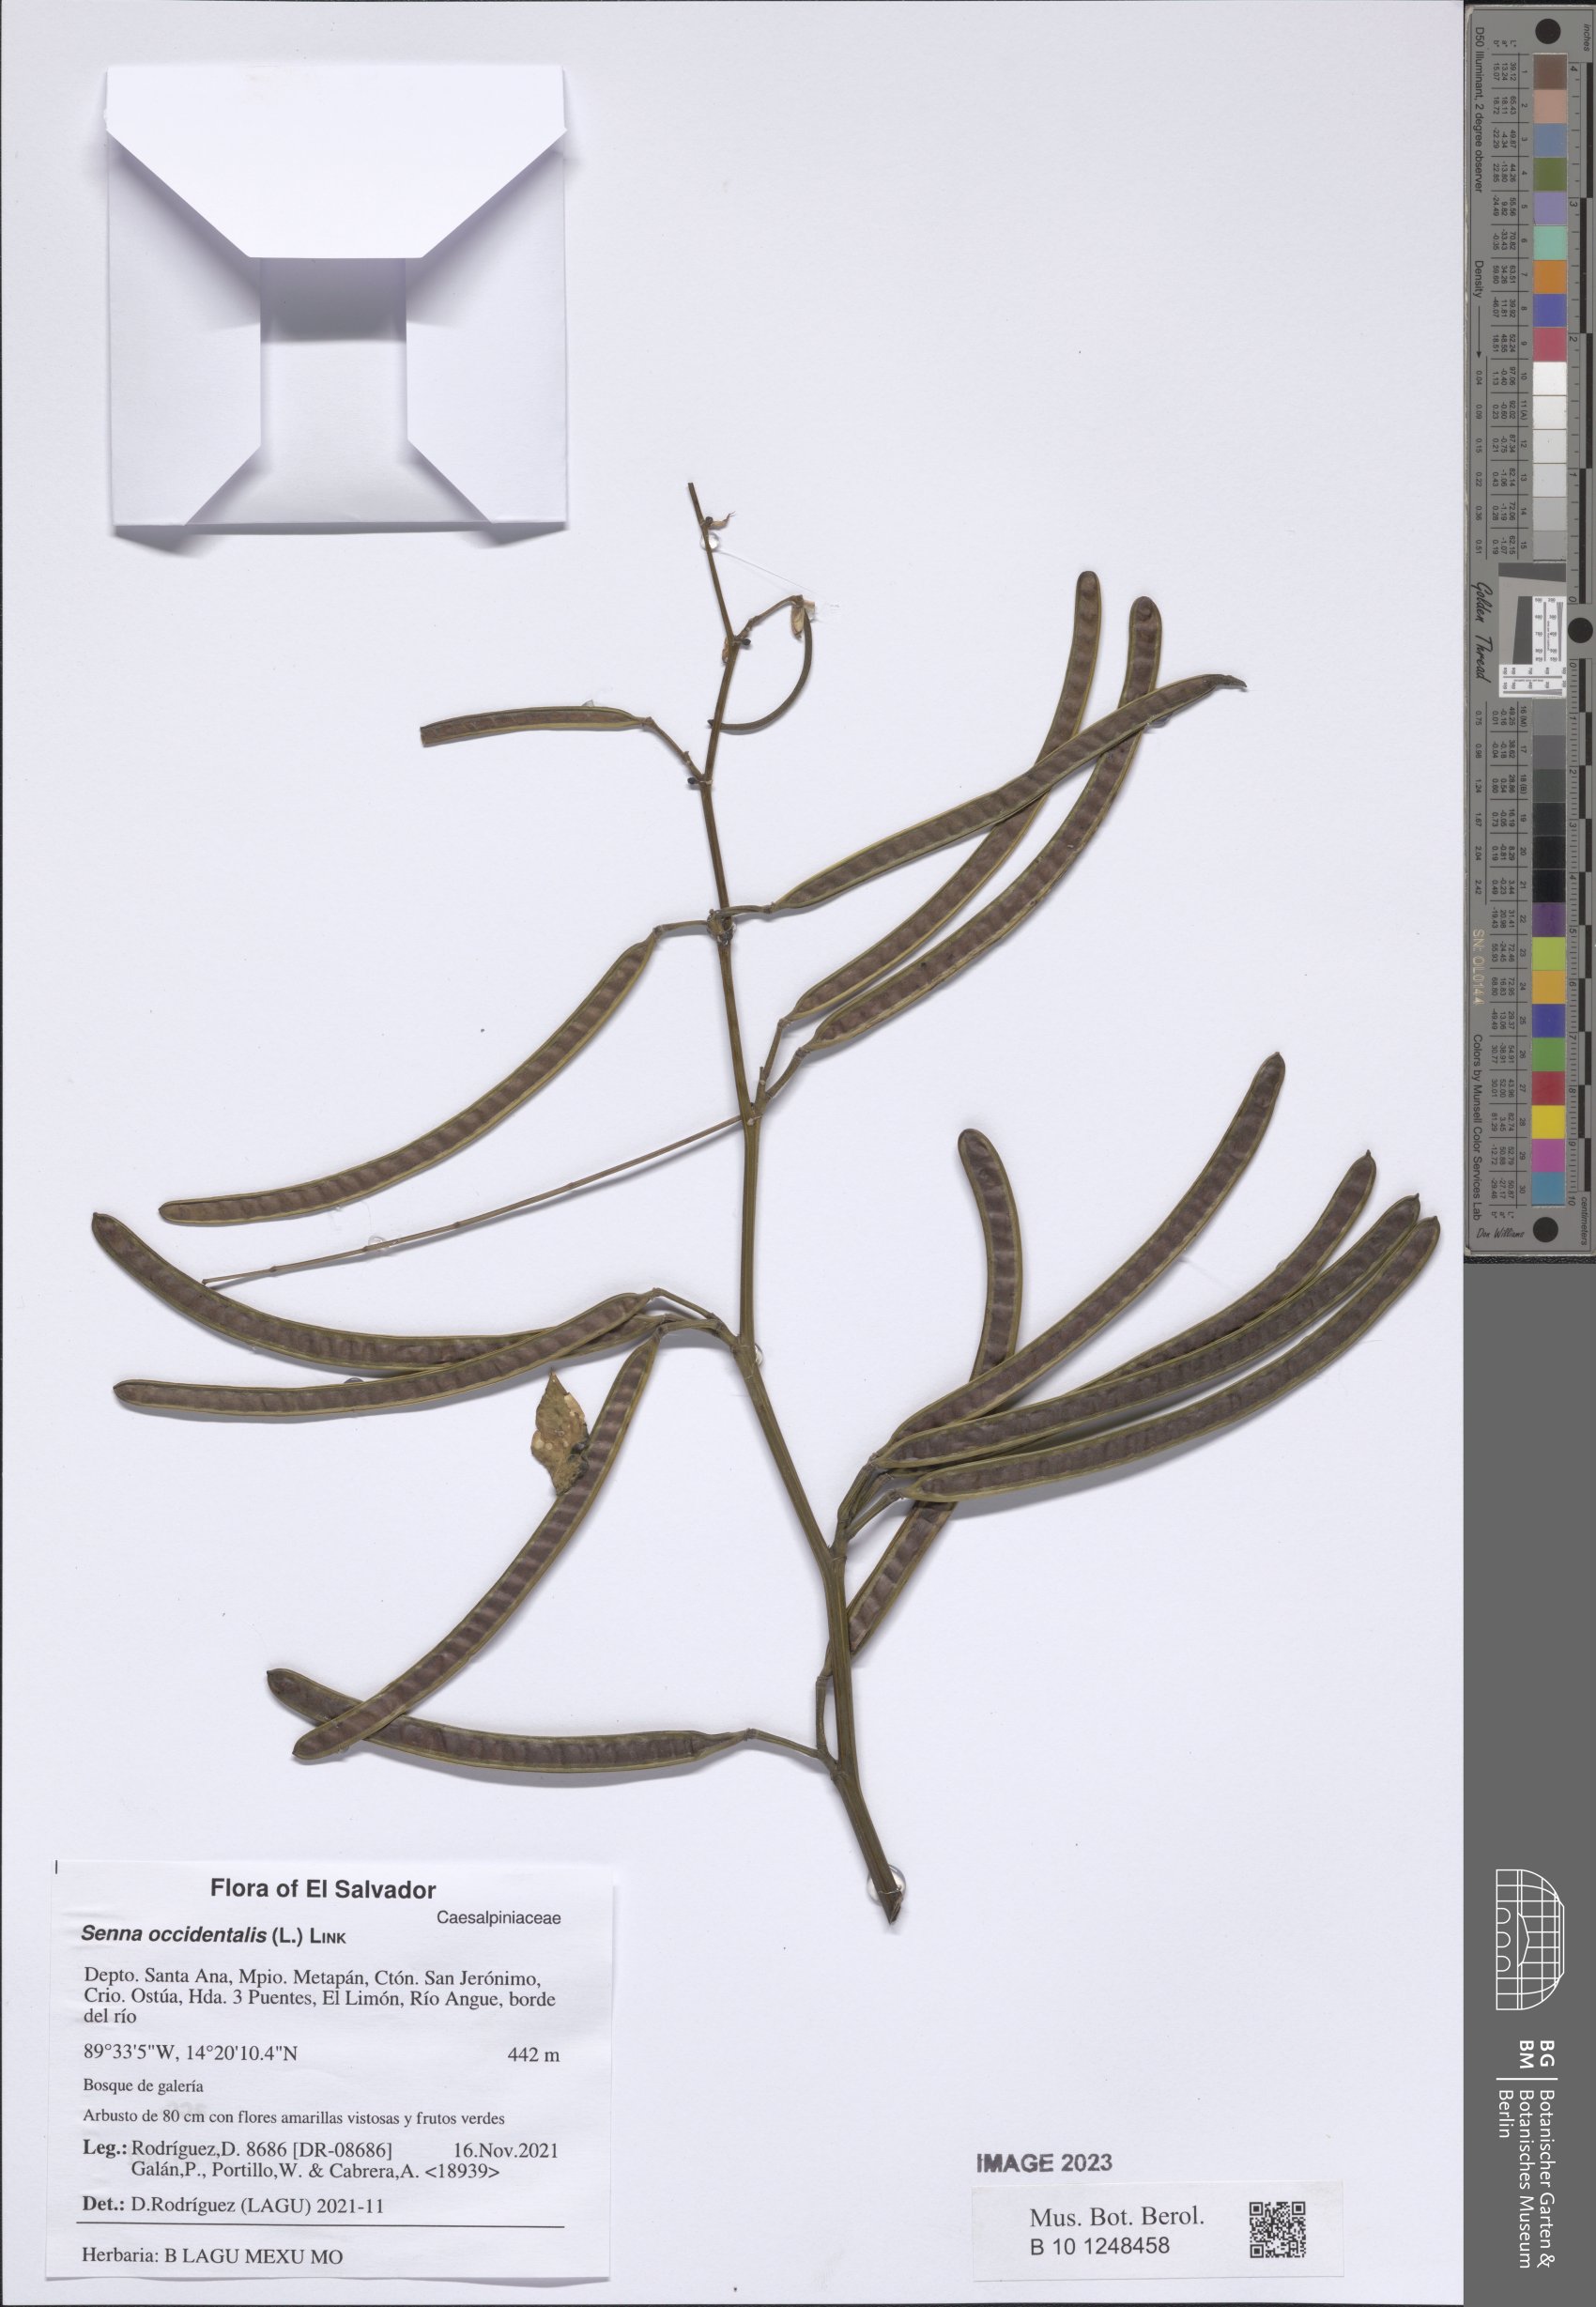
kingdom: Plantae
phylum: Tracheophyta
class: Magnoliopsida
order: Fabales
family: Fabaceae
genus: Senna
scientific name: Senna occidentalis
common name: Septicweed
